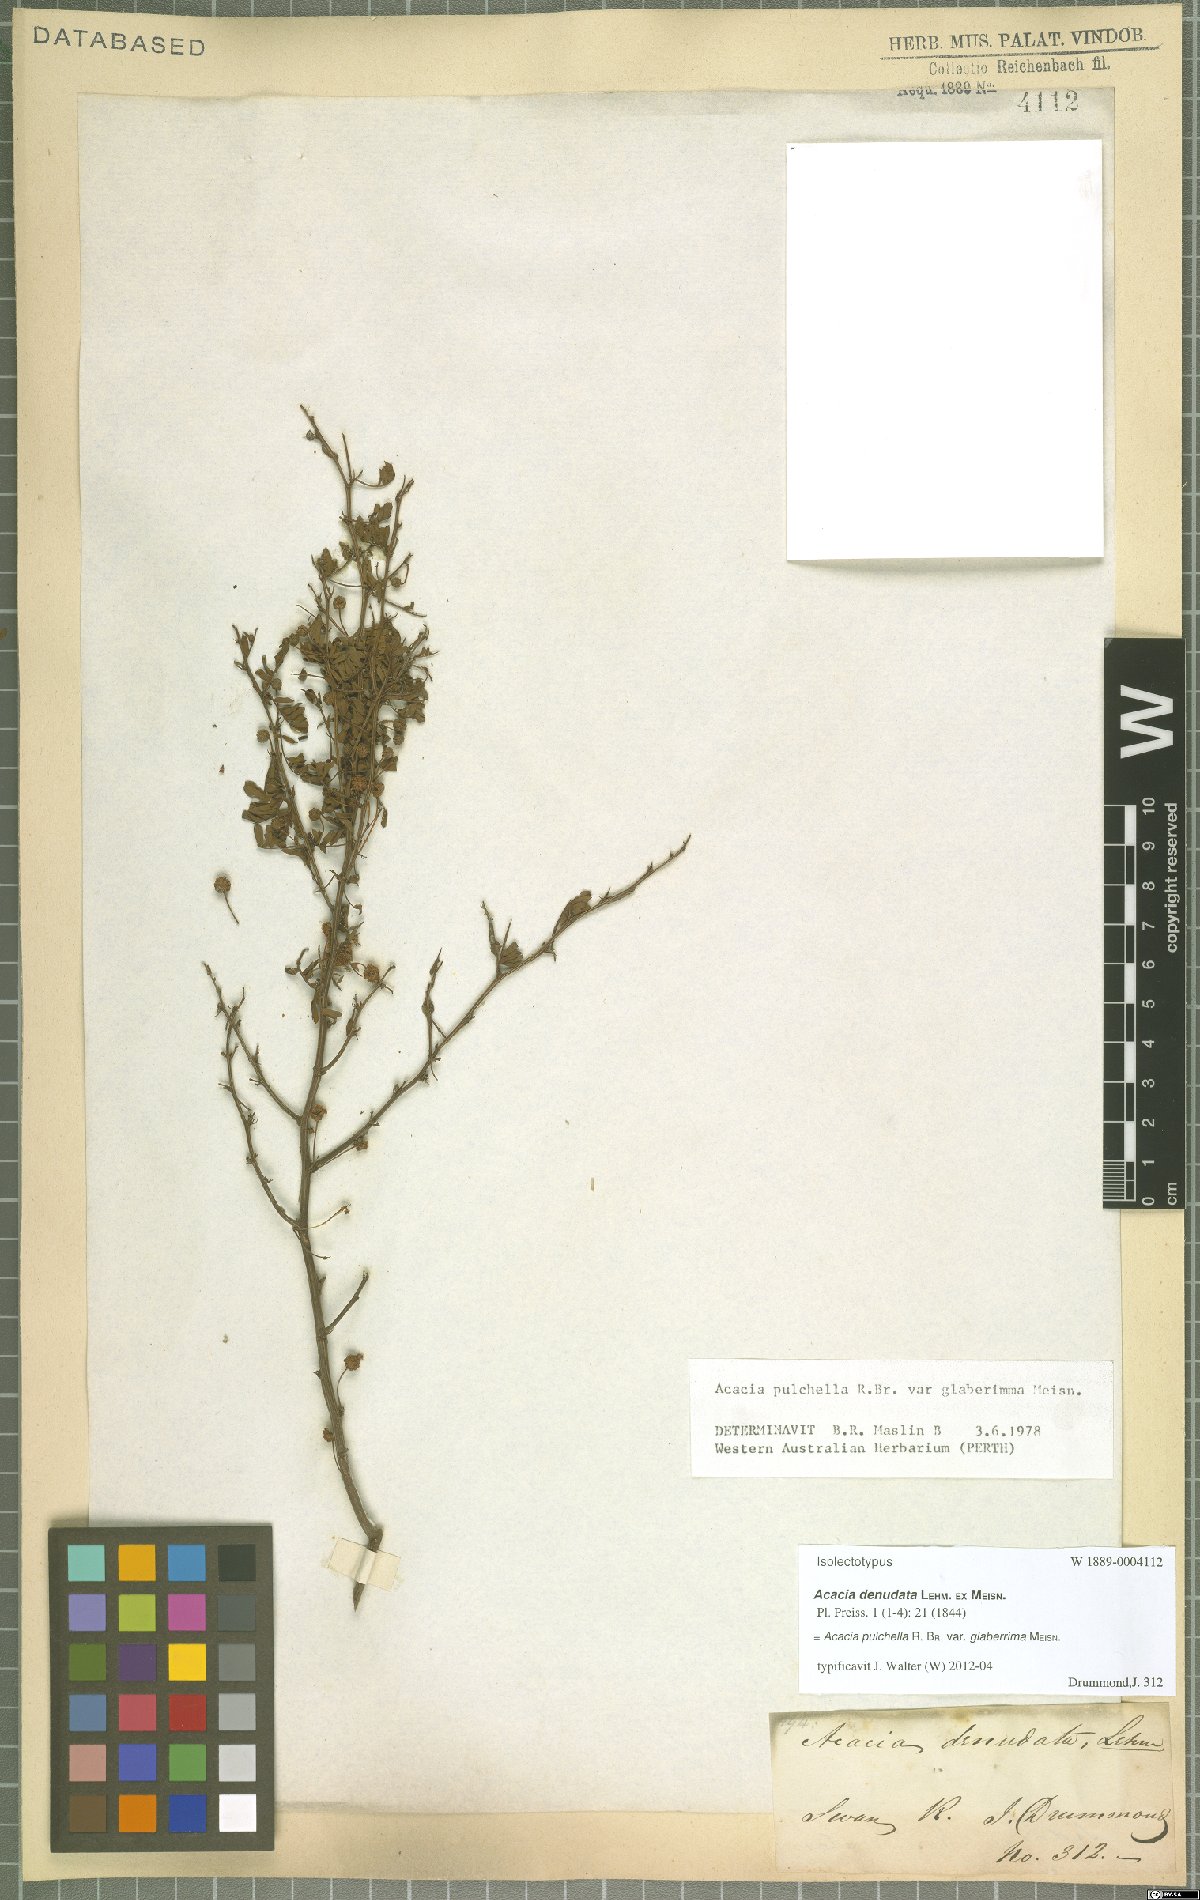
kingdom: Plantae
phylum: Tracheophyta
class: Magnoliopsida
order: Fabales
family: Fabaceae
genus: Acacia
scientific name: Acacia pulchella
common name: Prickly moses
